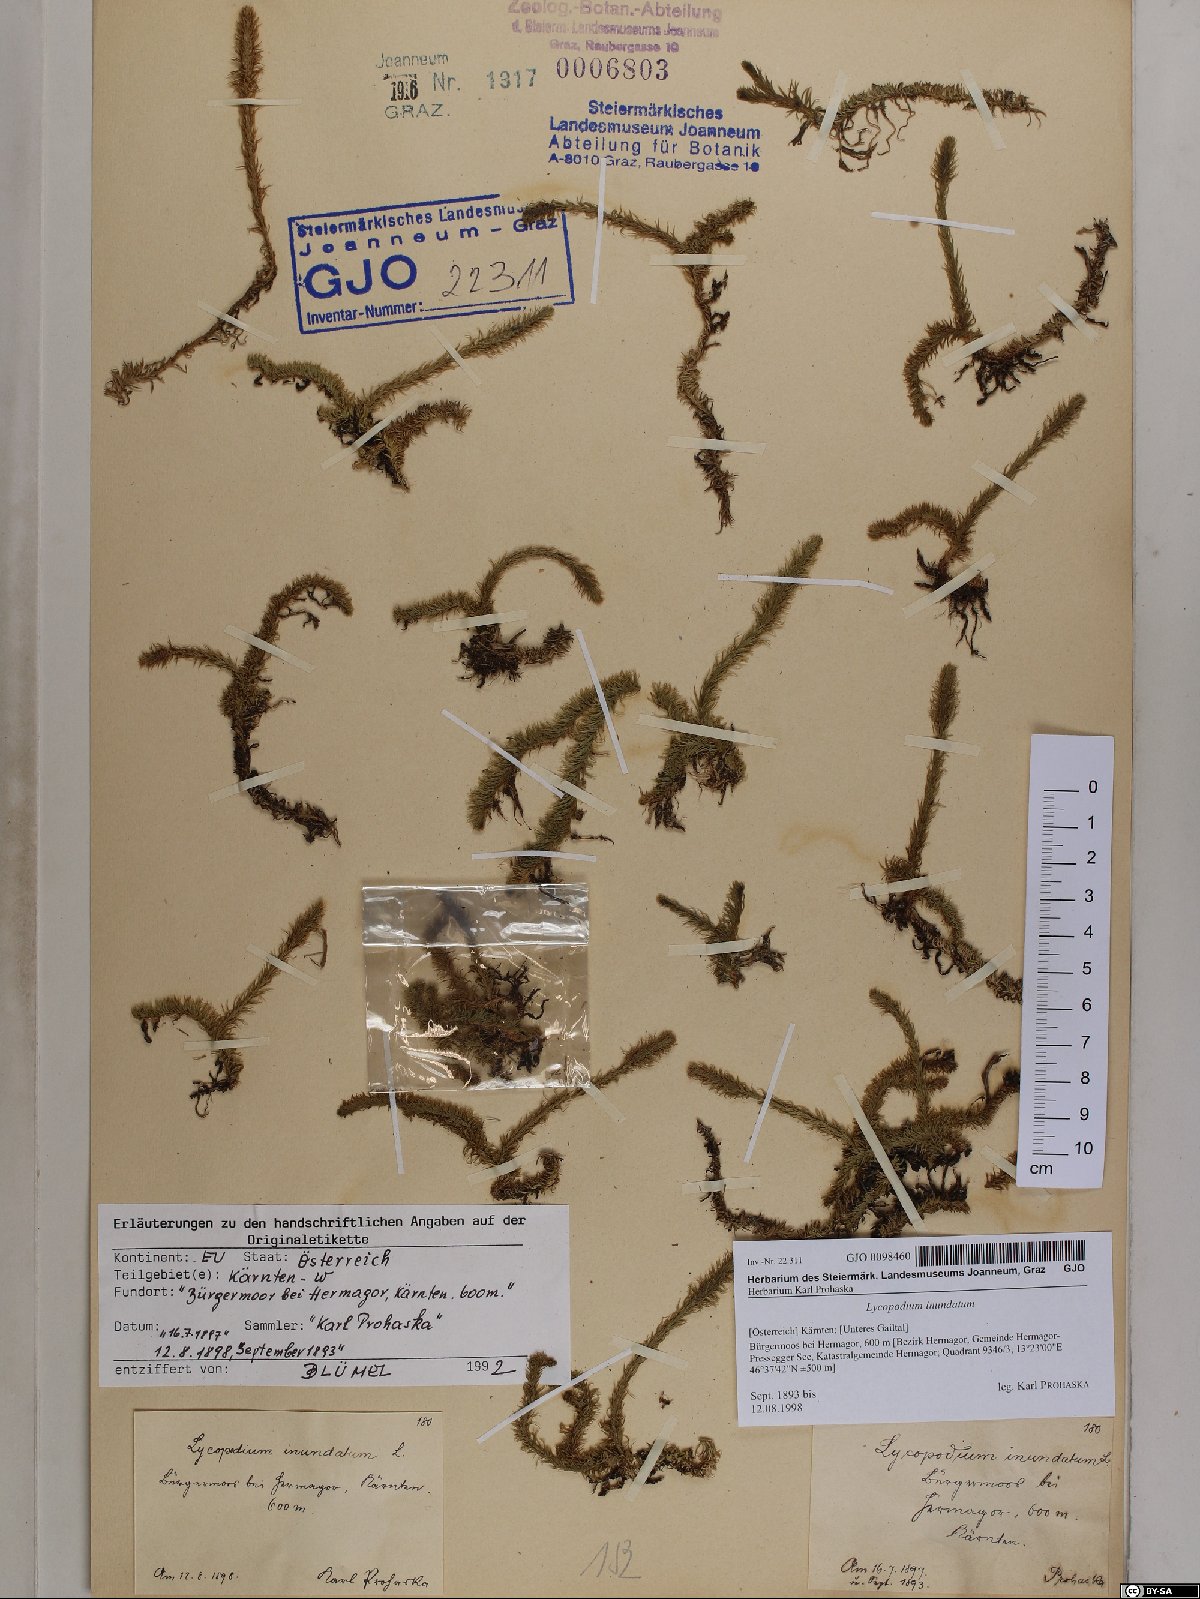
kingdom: Plantae
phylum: Tracheophyta
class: Lycopodiopsida
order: Lycopodiales
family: Lycopodiaceae
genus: Lycopodiella
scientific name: Lycopodiella inundata
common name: Marsh clubmoss
